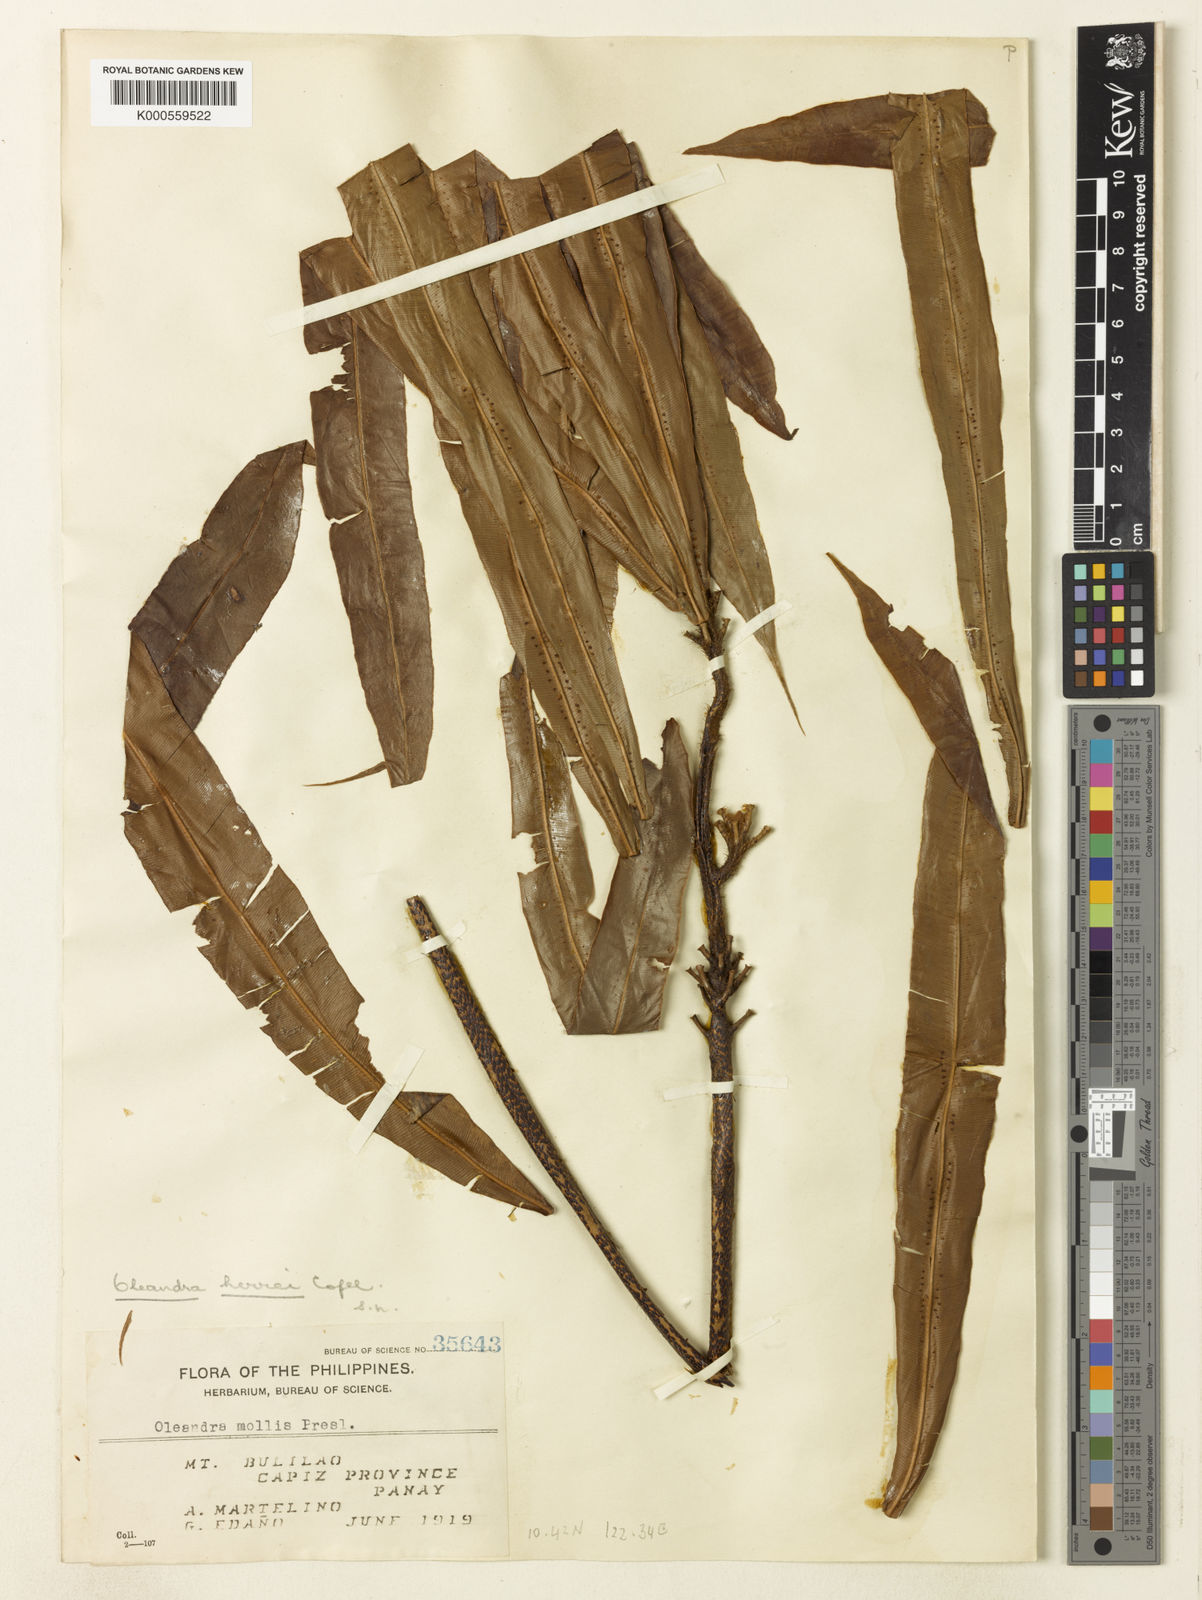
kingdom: Plantae
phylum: Tracheophyta
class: Polypodiopsida
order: Polypodiales
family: Oleandraceae
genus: Oleandra
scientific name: Oleandra neriiformis
